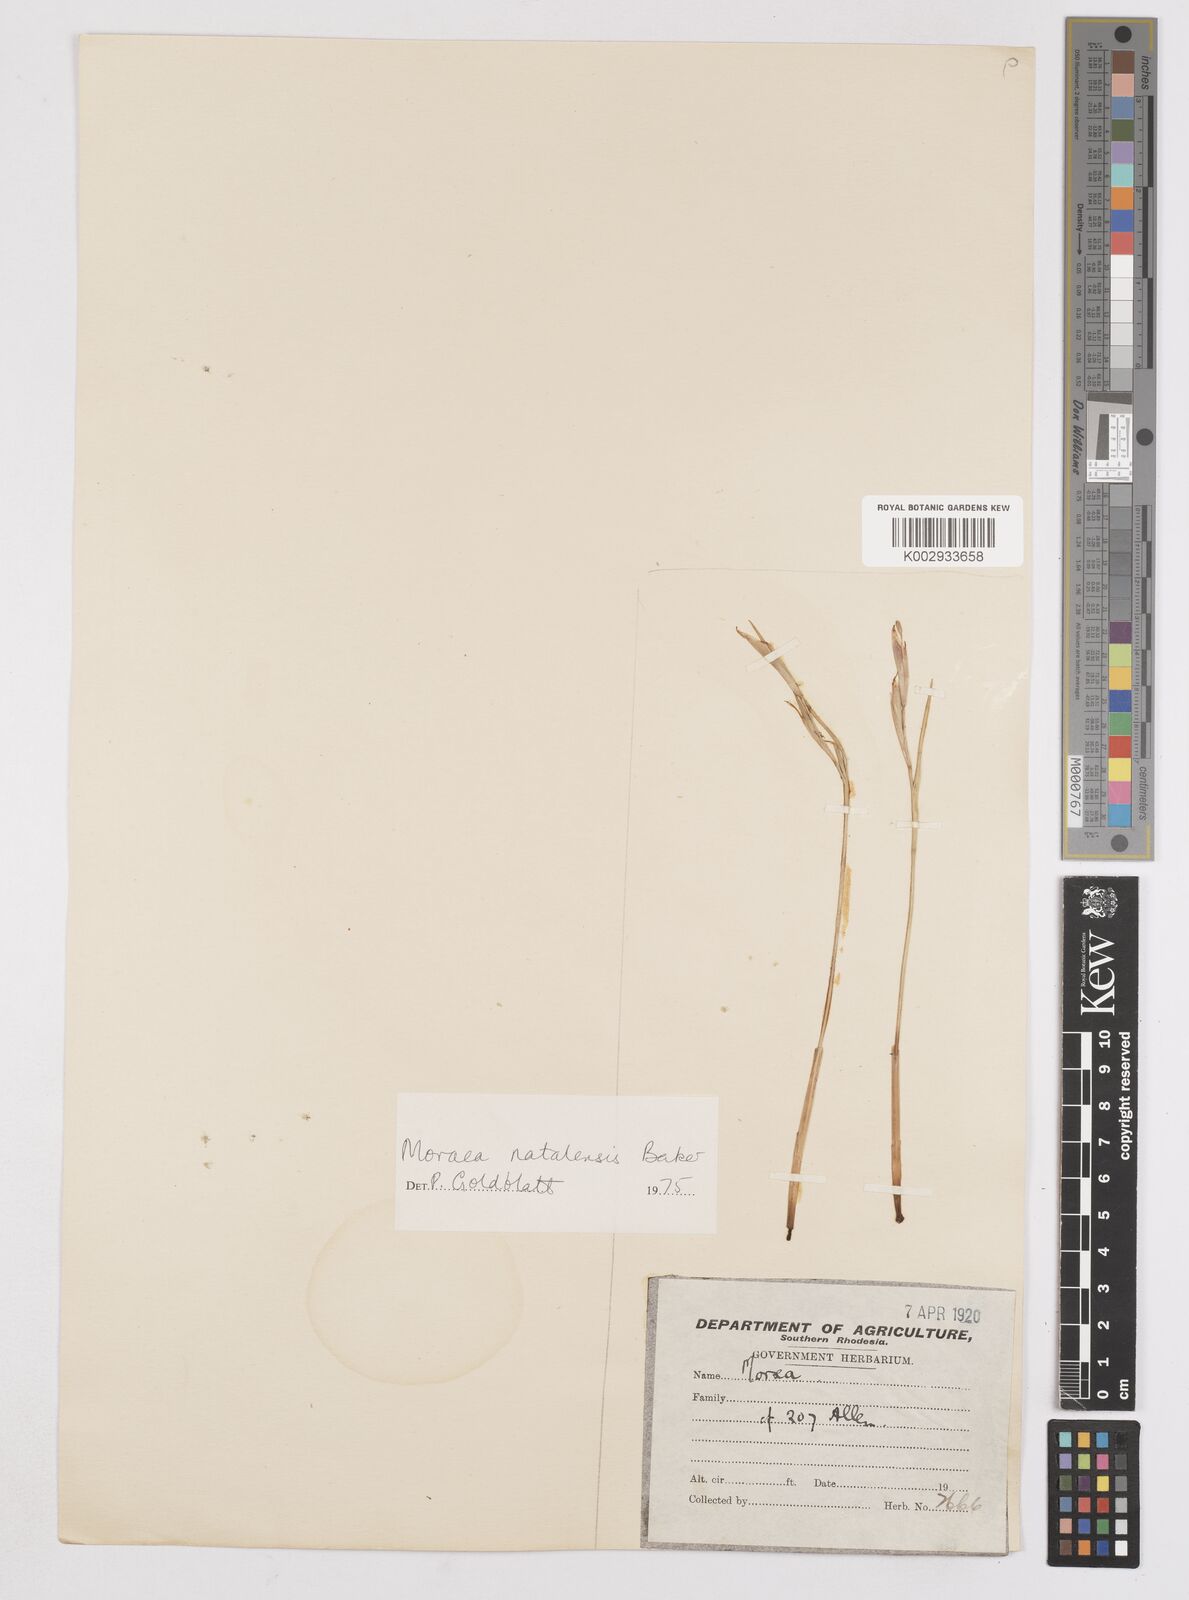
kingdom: Plantae
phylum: Tracheophyta
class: Liliopsida
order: Asparagales
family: Iridaceae
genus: Moraea
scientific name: Moraea natalensis
